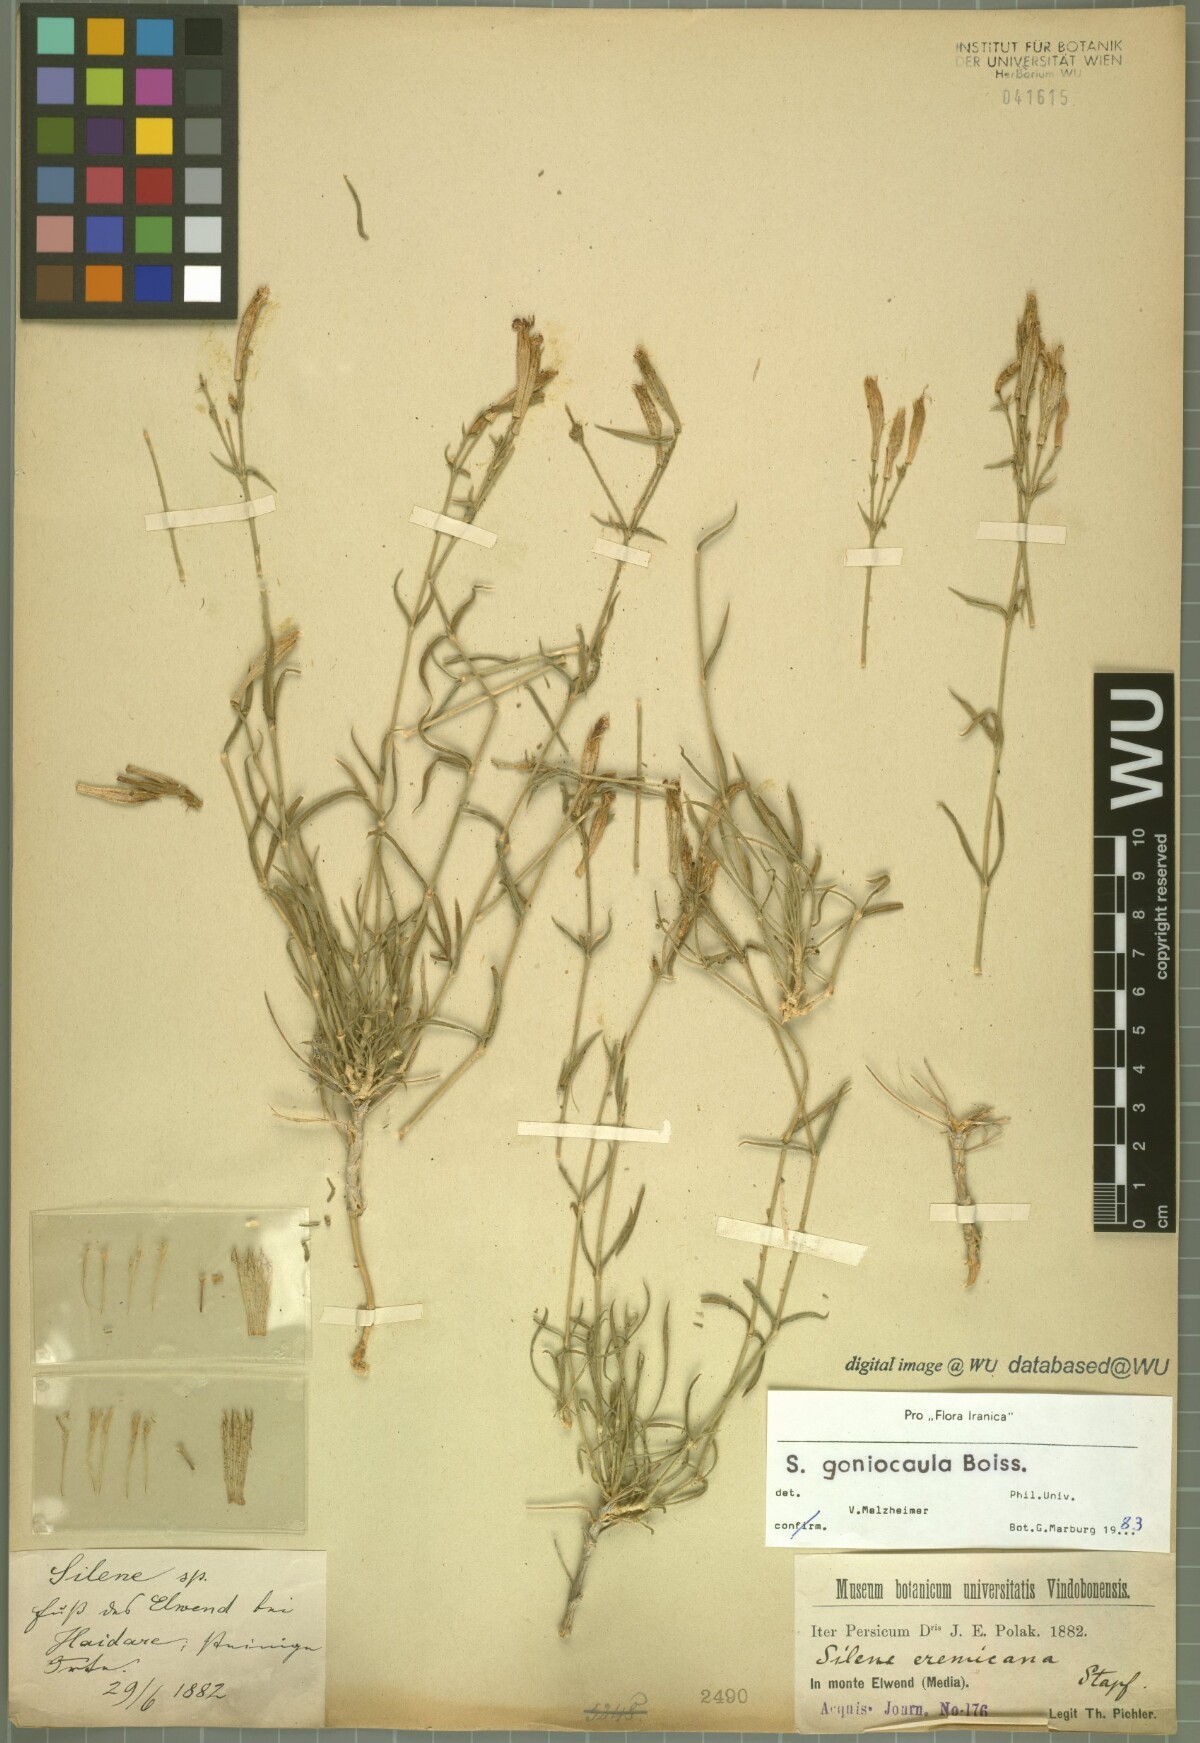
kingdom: Plantae
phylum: Tracheophyta
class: Magnoliopsida
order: Caryophyllales
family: Caryophyllaceae
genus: Silene
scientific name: Silene goniocaula
